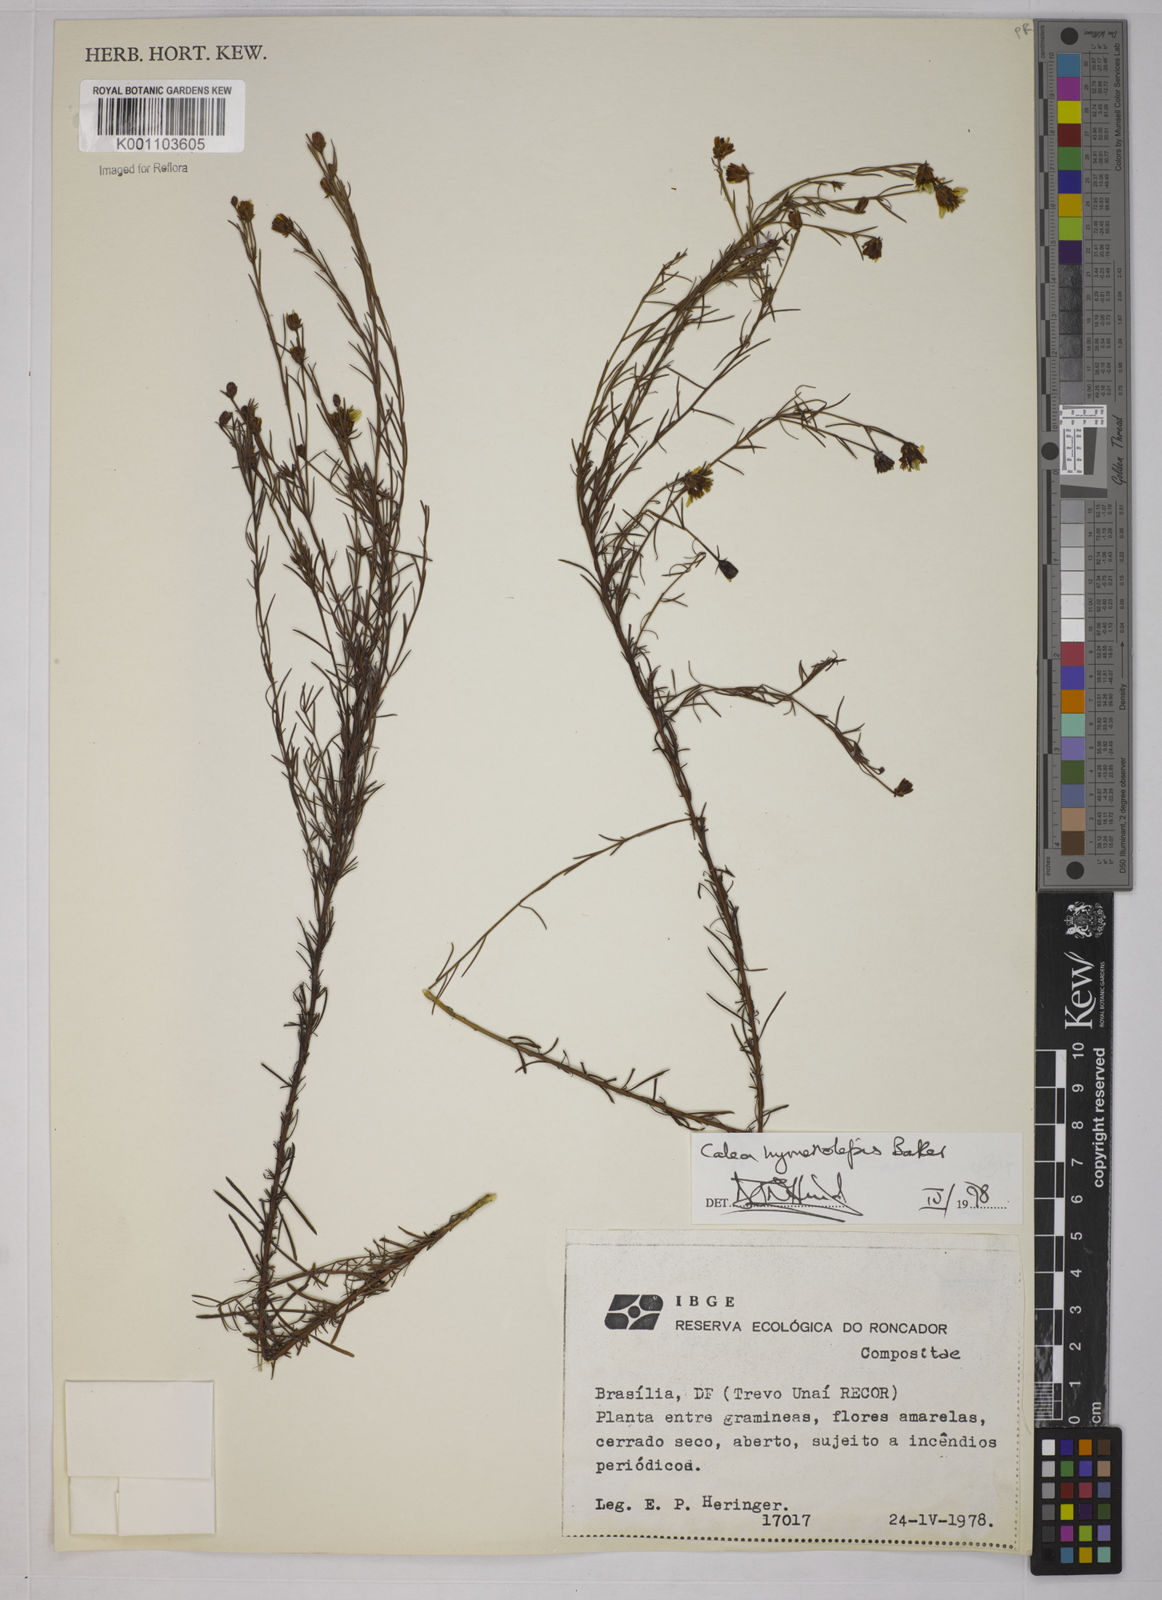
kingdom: Plantae
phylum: Tracheophyta
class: Magnoliopsida
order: Asterales
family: Asteraceae
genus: Calea
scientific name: Calea hymenolepis
